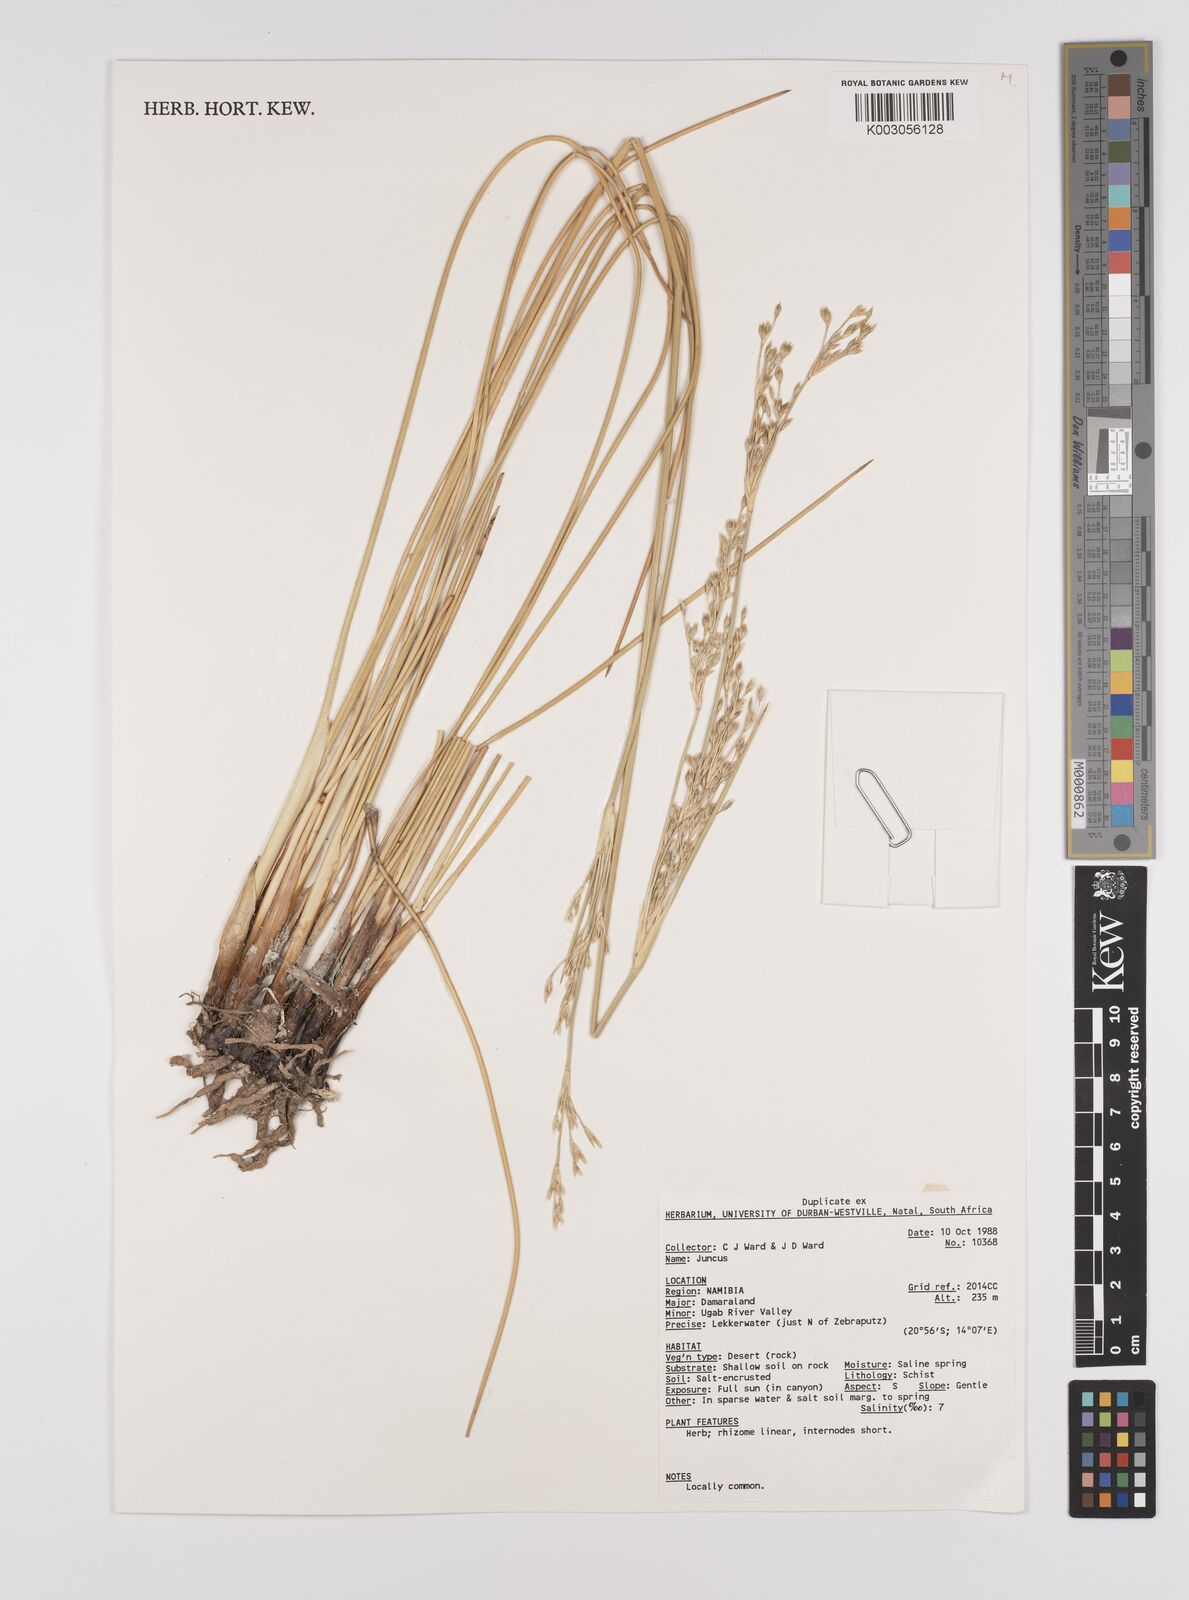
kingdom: Plantae
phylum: Tracheophyta
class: Liliopsida
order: Poales
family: Juncaceae
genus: Juncus
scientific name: Juncus
